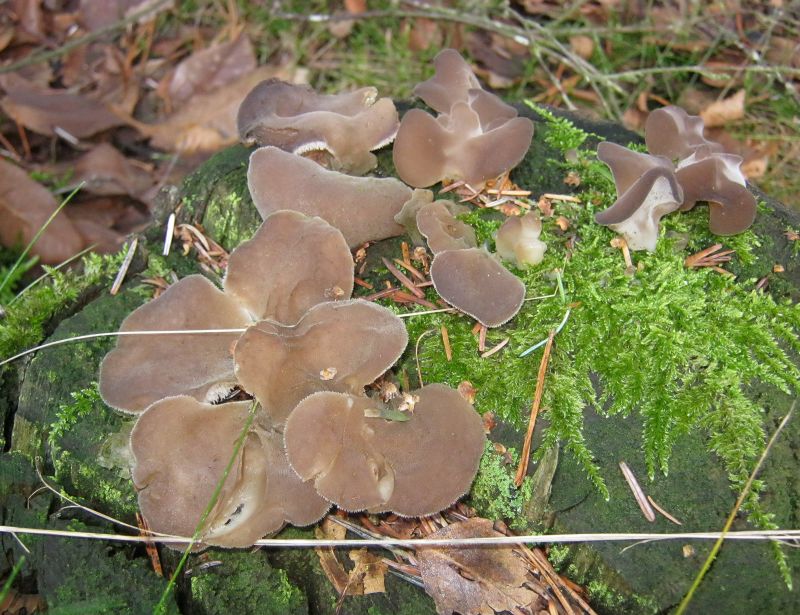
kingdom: Fungi
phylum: Basidiomycota
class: Agaricomycetes
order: Auriculariales
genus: Pseudohydnum
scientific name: Pseudohydnum gelatinosum
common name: bævretand
